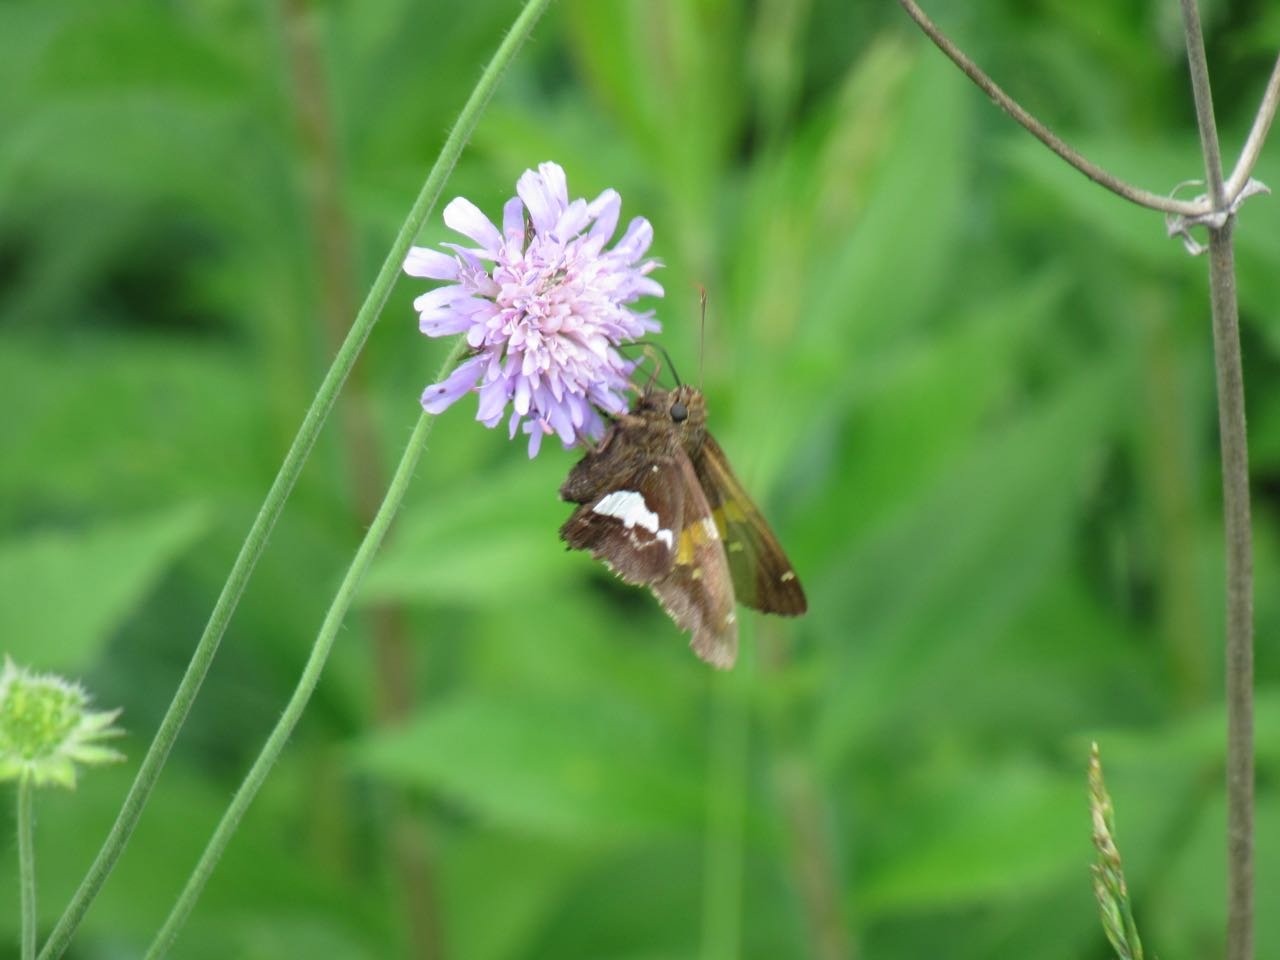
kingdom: Animalia
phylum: Arthropoda
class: Insecta
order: Lepidoptera
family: Hesperiidae
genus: Epargyreus
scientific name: Epargyreus clarus
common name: Silver-spotted Skipper
